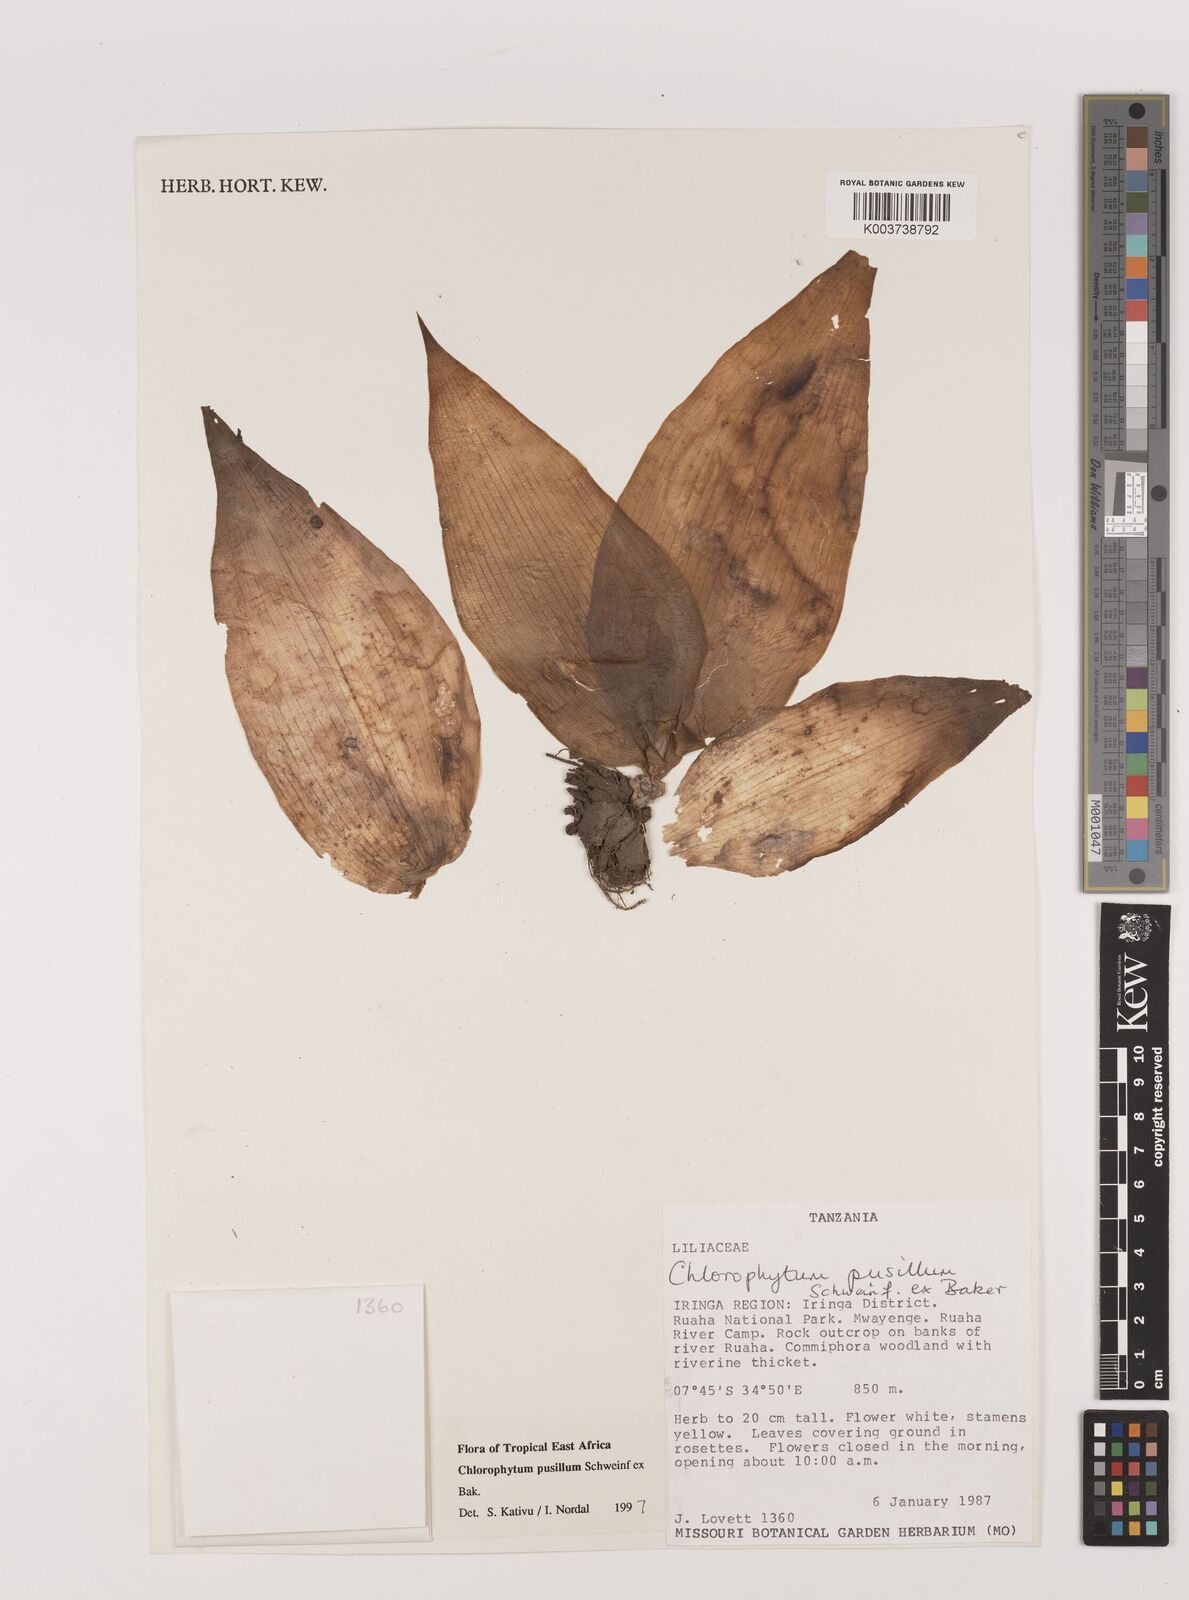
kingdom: Plantae
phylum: Tracheophyta
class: Liliopsida
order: Asparagales
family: Asparagaceae
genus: Chlorophytum
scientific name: Chlorophytum pusillum
